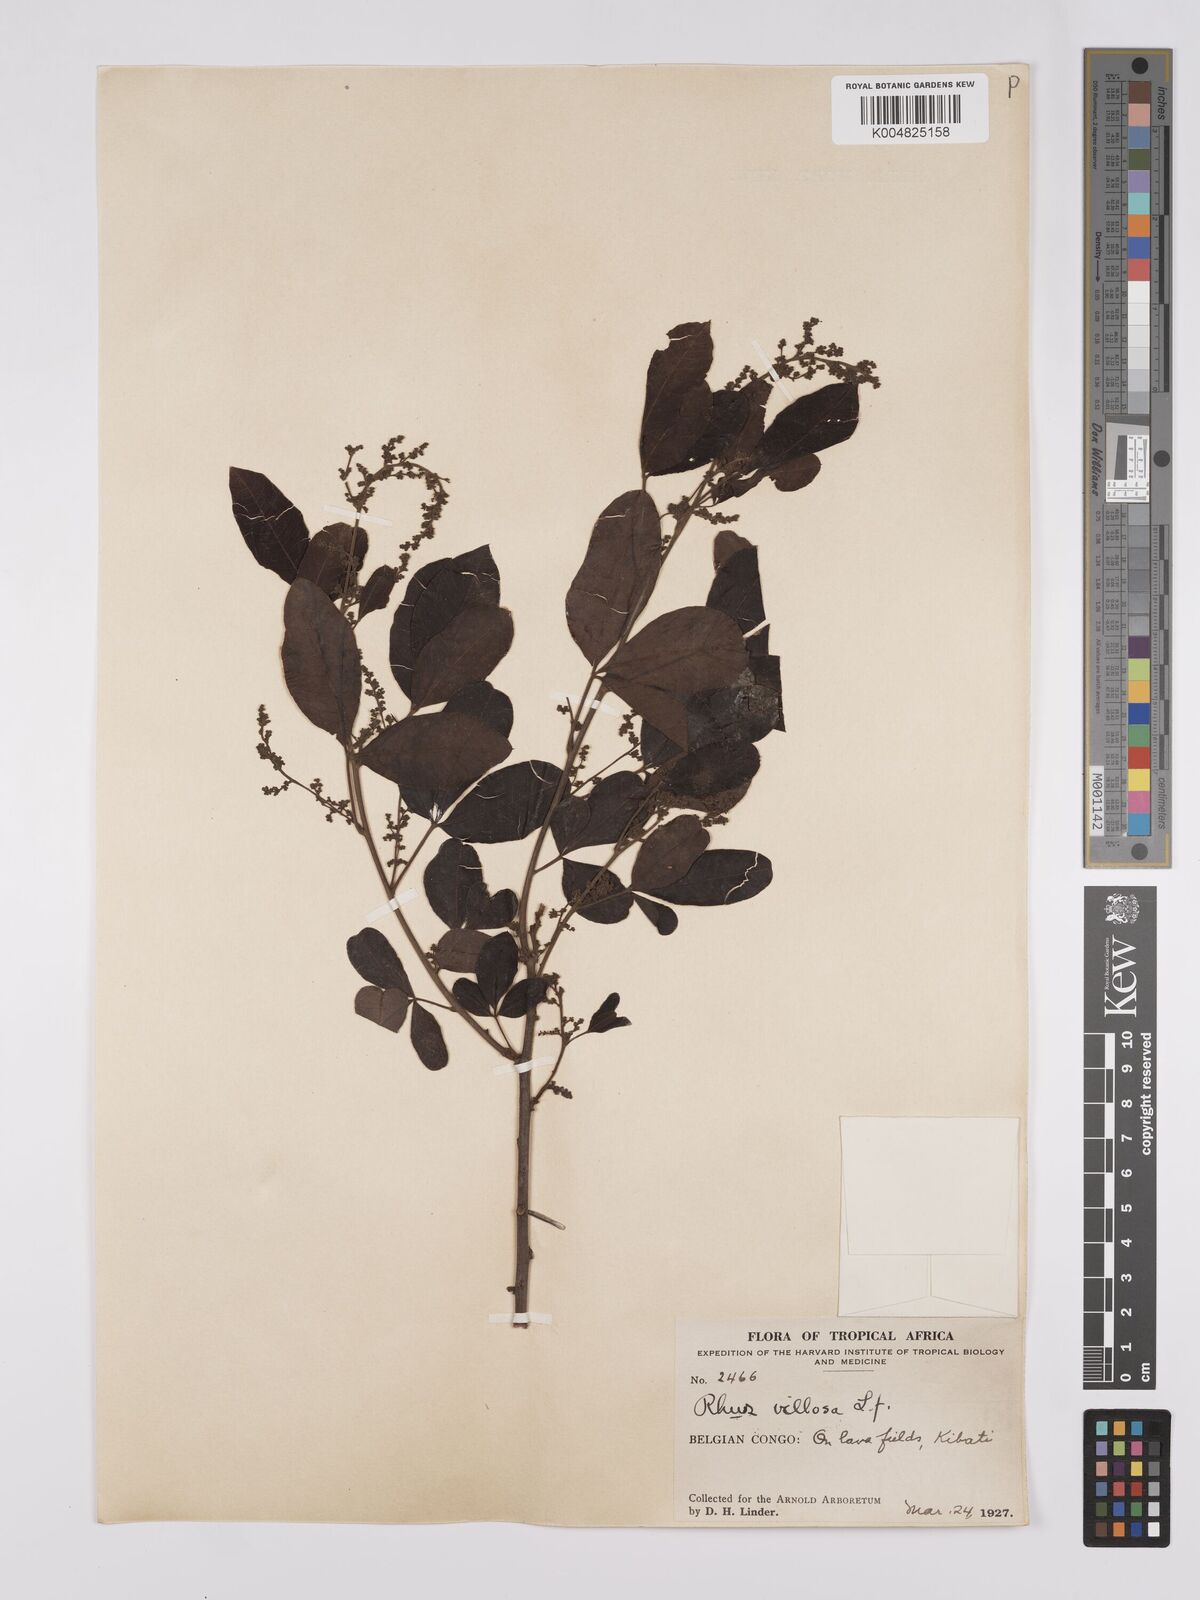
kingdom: Plantae
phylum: Tracheophyta
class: Magnoliopsida
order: Sapindales
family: Anacardiaceae
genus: Searsia
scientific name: Searsia longipes
